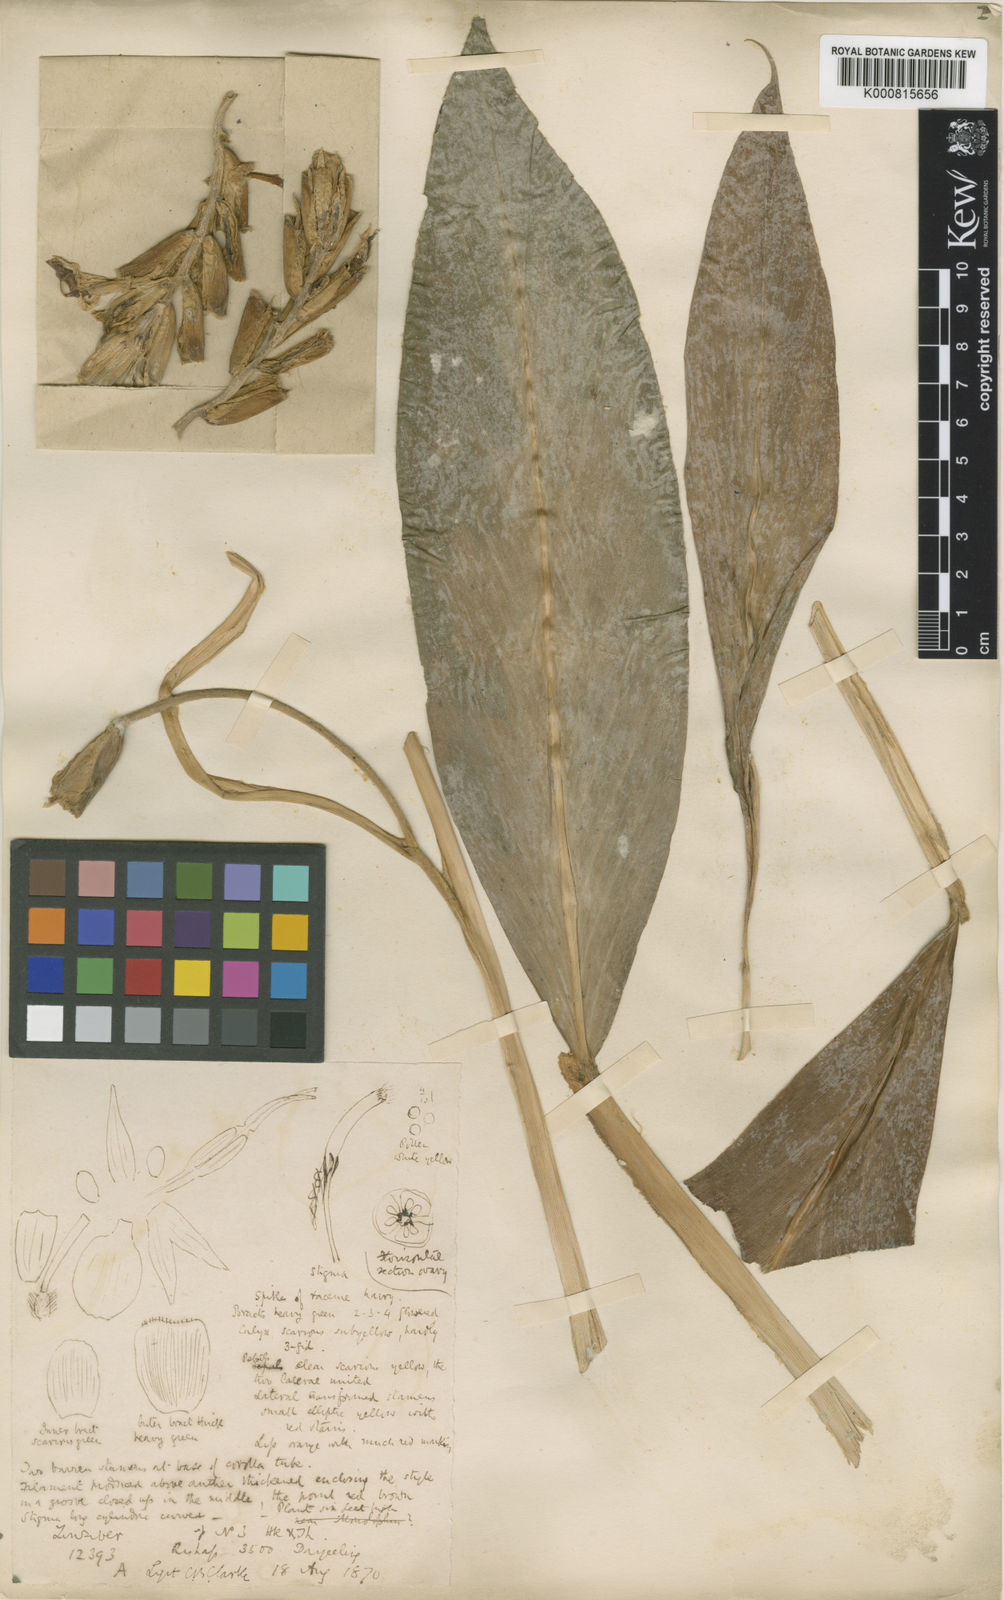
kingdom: Plantae
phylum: Tracheophyta
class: Liliopsida
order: Zingiberales
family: Zingiberaceae
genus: Zingiber
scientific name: Zingiber clarkei
